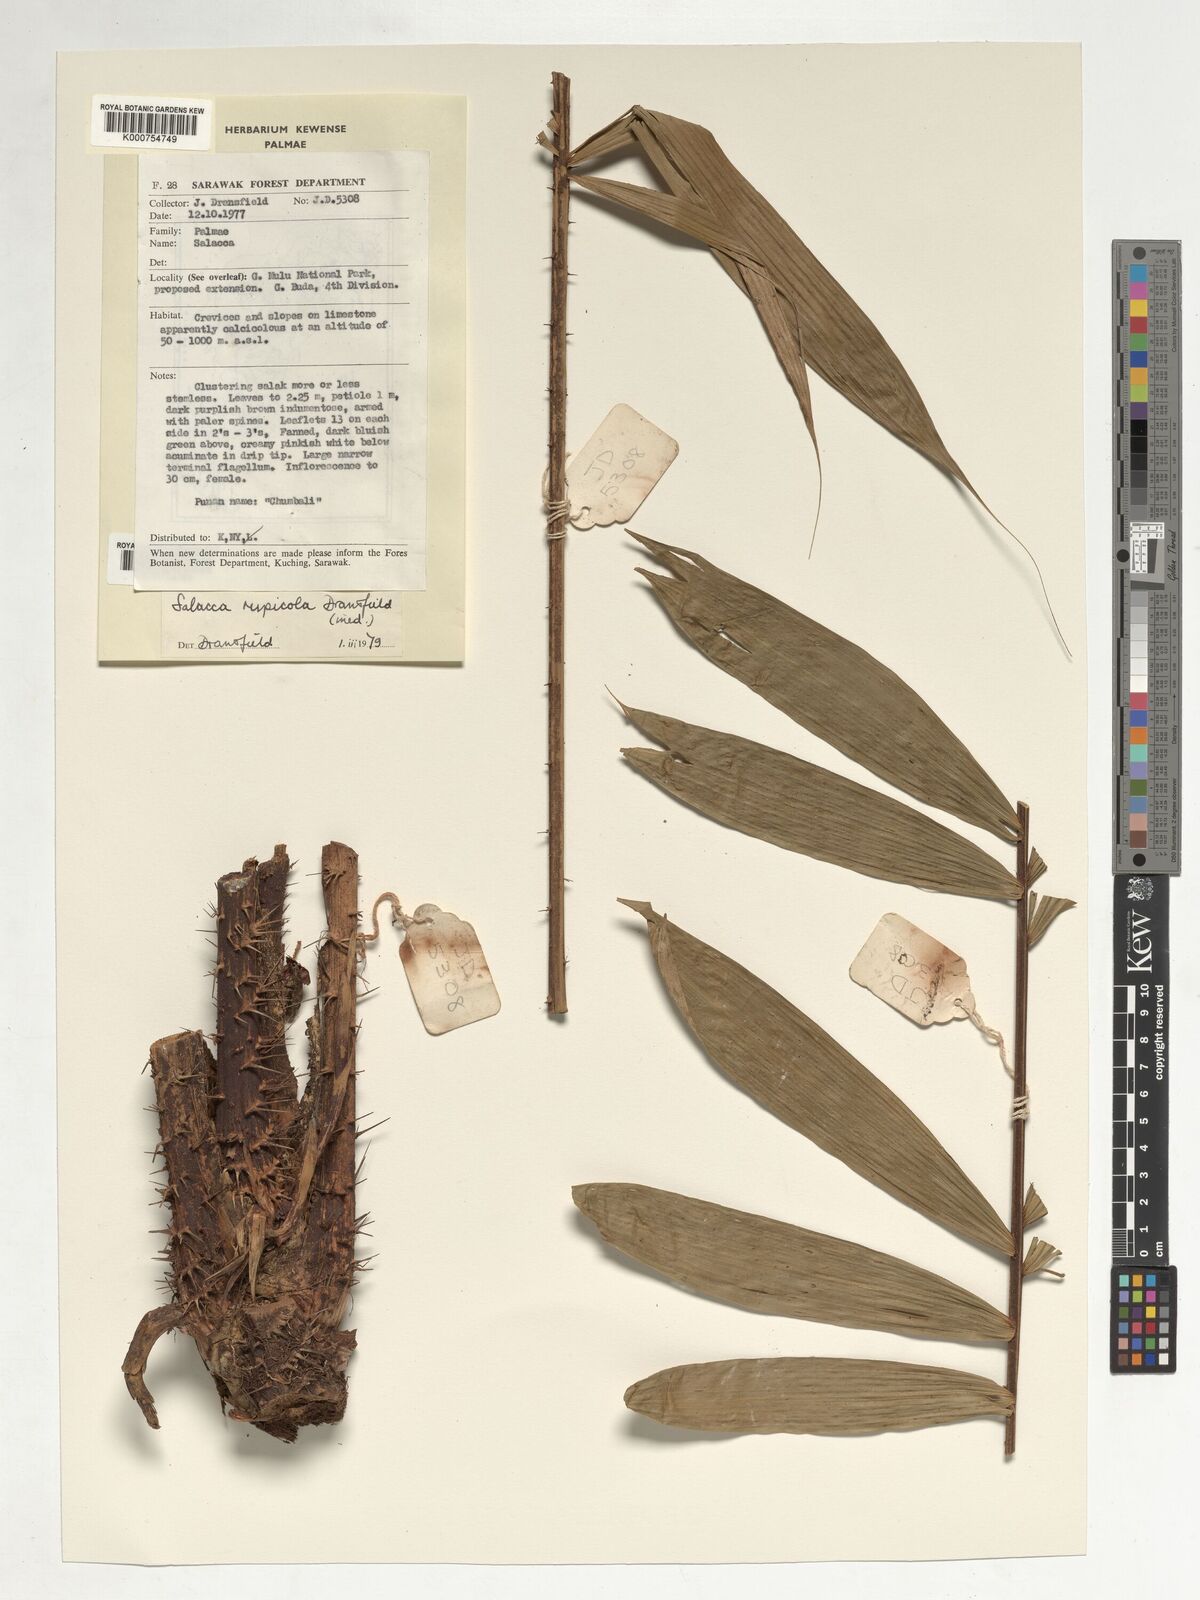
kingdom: Plantae
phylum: Tracheophyta
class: Liliopsida
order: Arecales
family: Arecaceae
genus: Salacca
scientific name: Salacca rupicola
